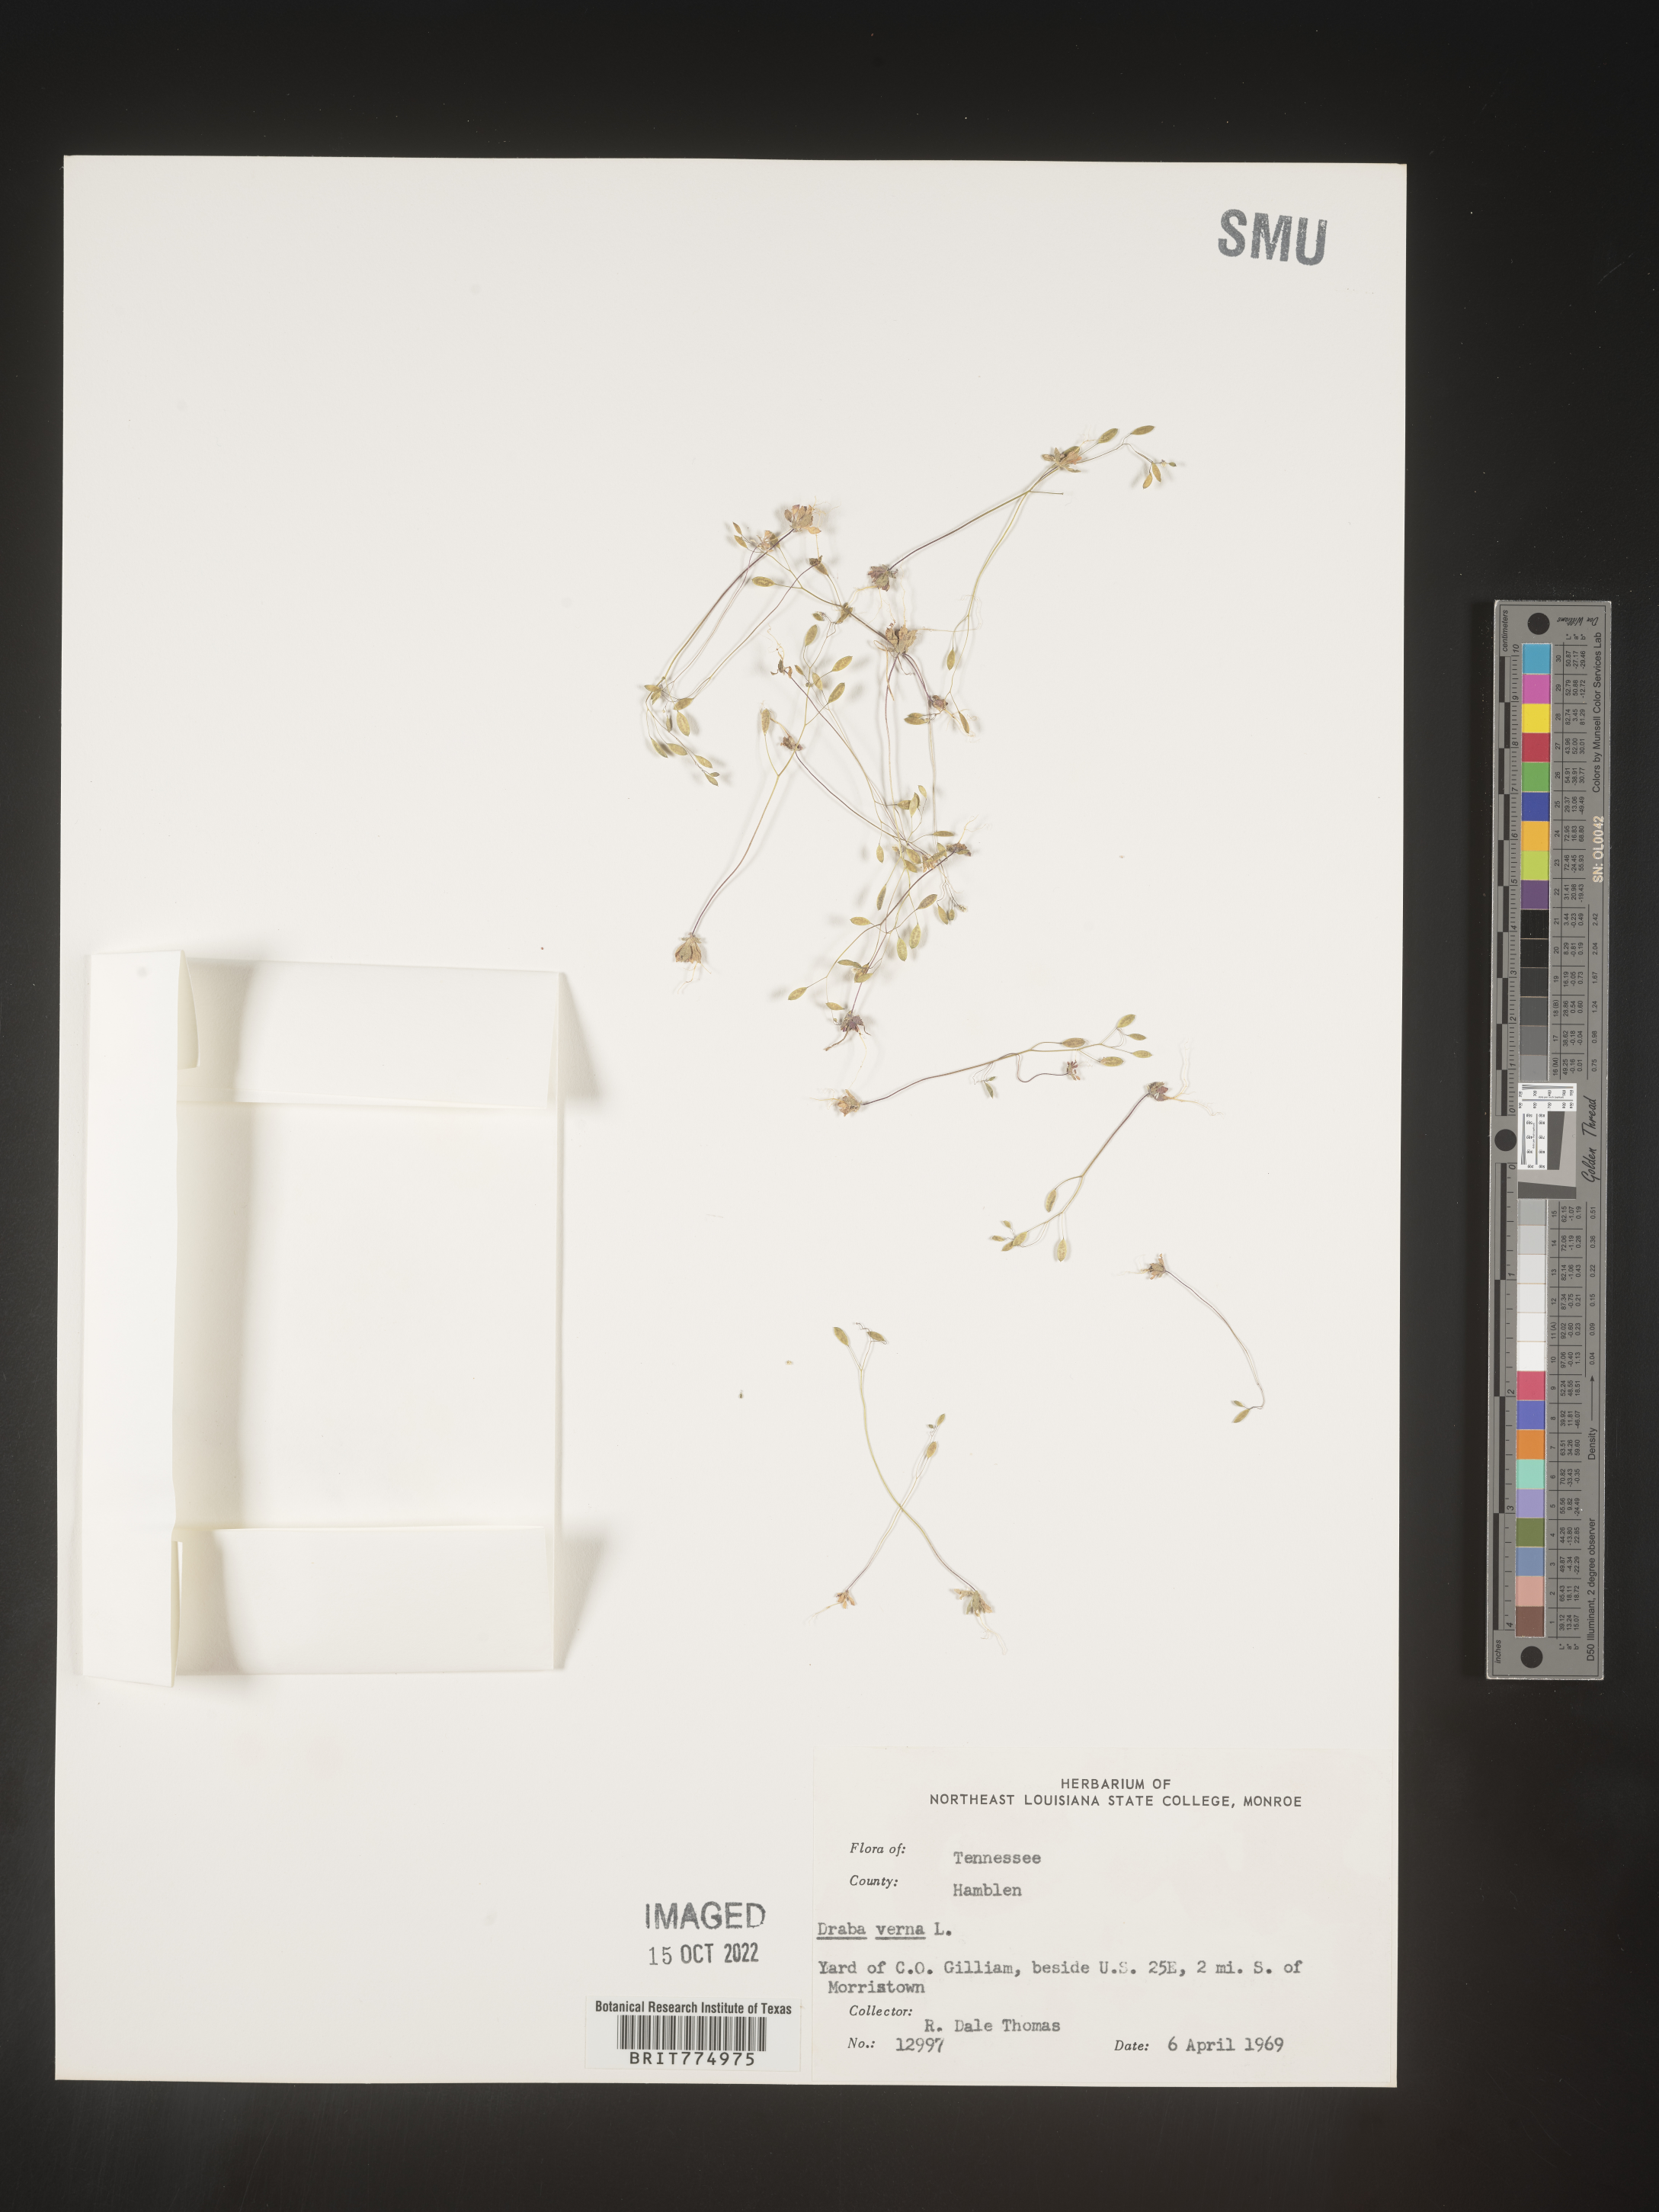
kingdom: Plantae
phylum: Tracheophyta
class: Magnoliopsida
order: Brassicales
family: Brassicaceae
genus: Draba
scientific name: Draba verna
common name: Spring draba
